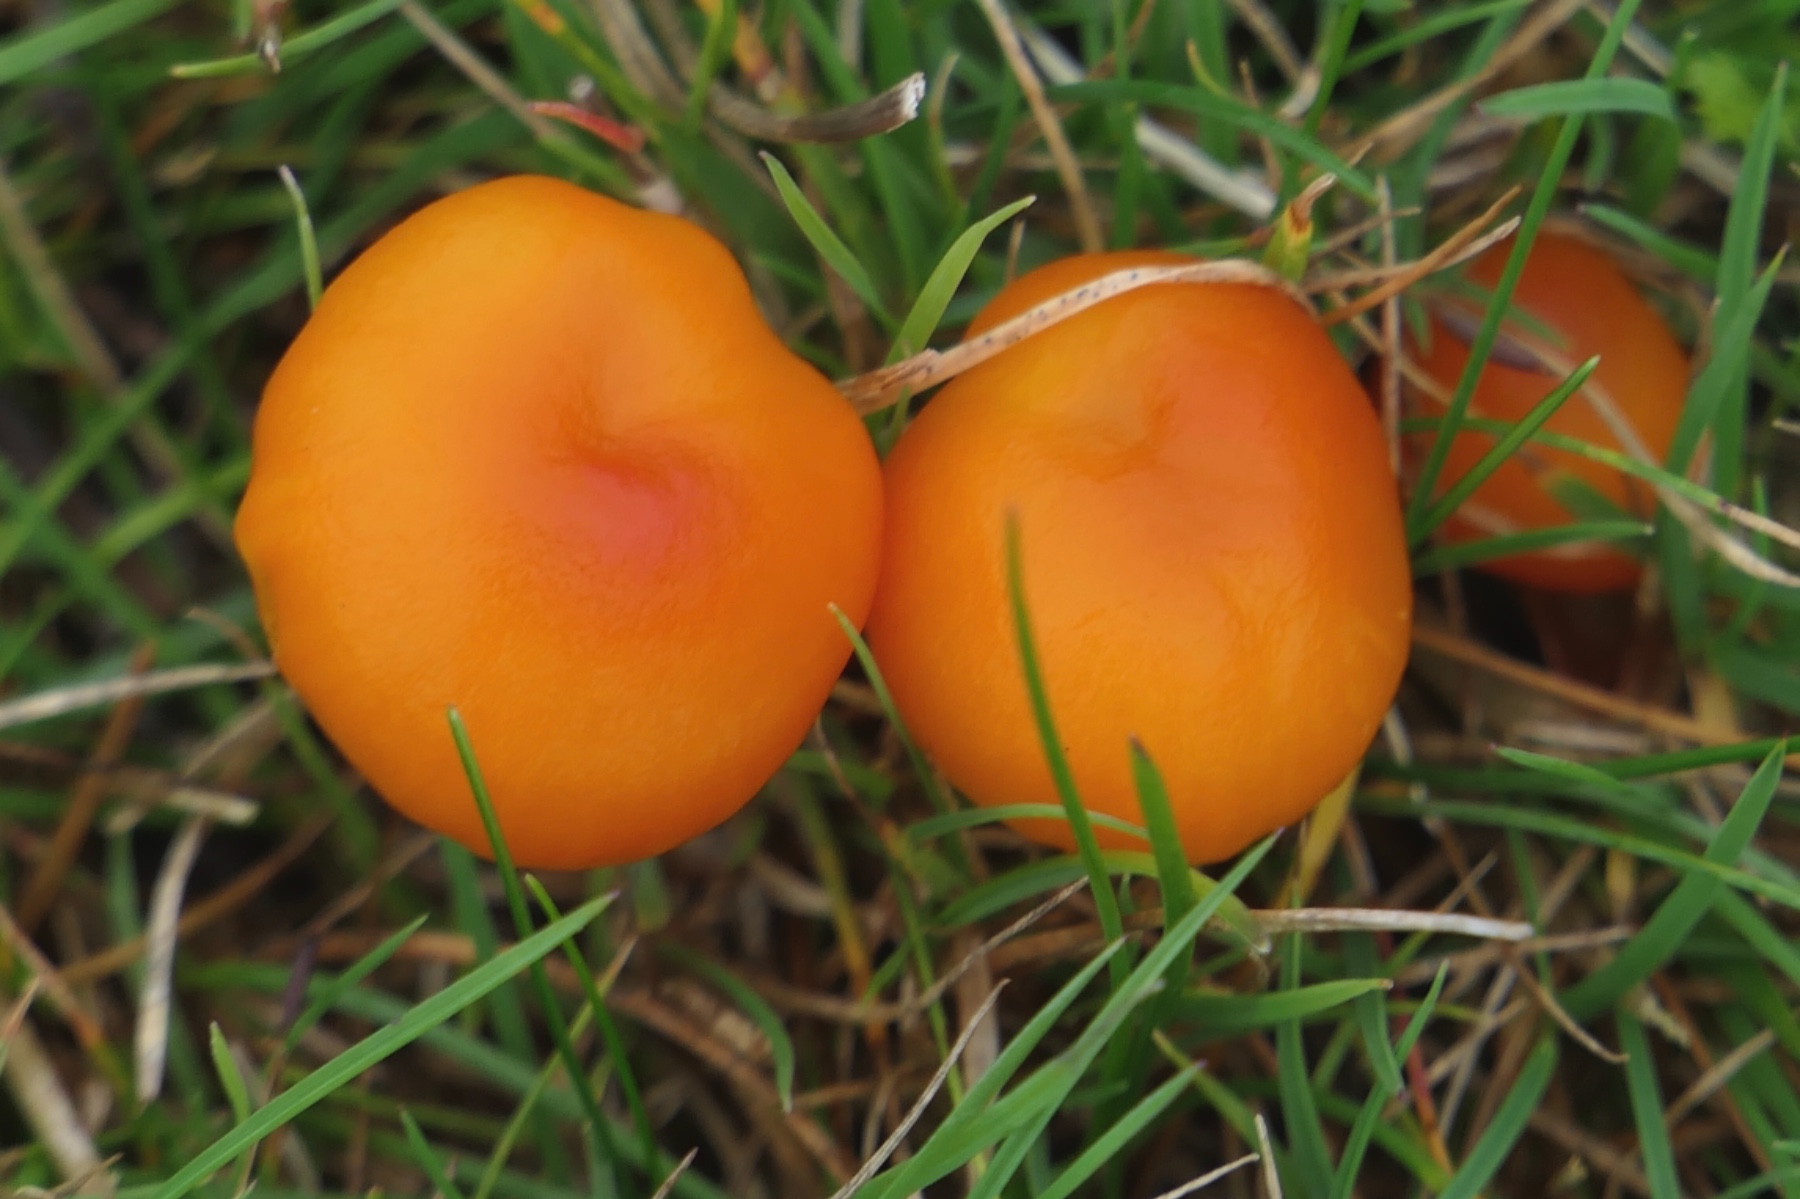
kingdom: Fungi
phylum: Basidiomycota
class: Agaricomycetes
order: Agaricales
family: Hygrophoraceae
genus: Hygrocybe
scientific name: Hygrocybe ceracea
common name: voksgul vokshat
